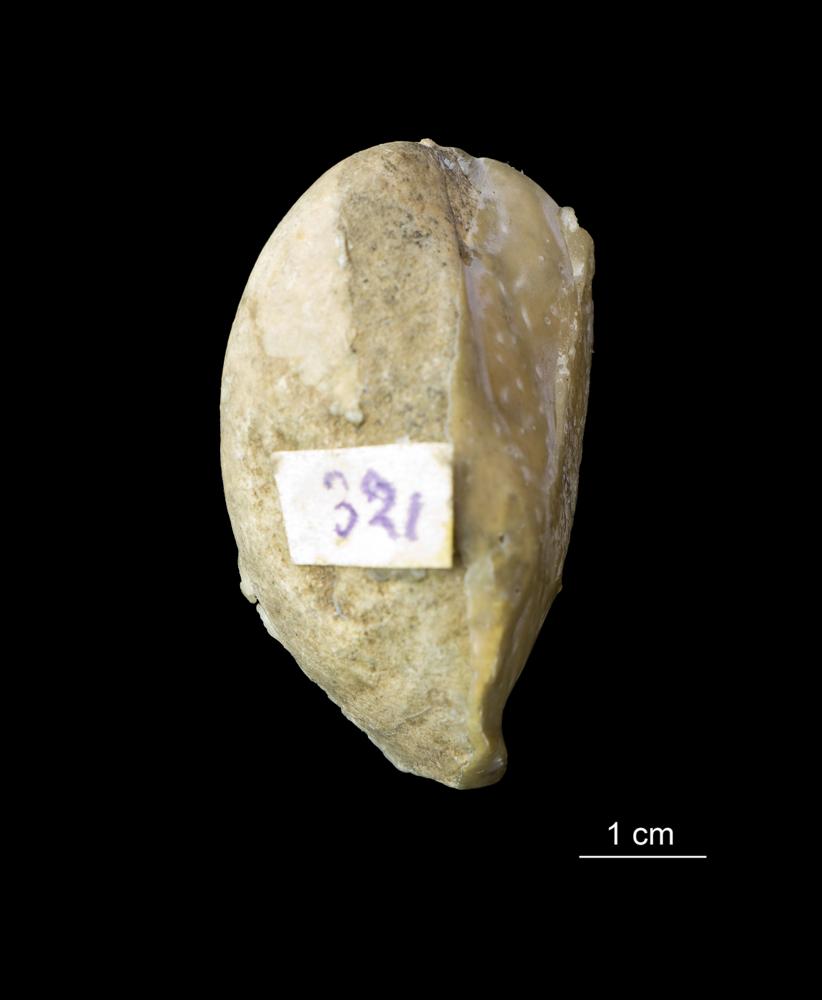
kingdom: Animalia
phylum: Mollusca
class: Bivalvia
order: Modiomorphida
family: Modiomorphidae
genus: Modiolopsis
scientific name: Modiolopsis
